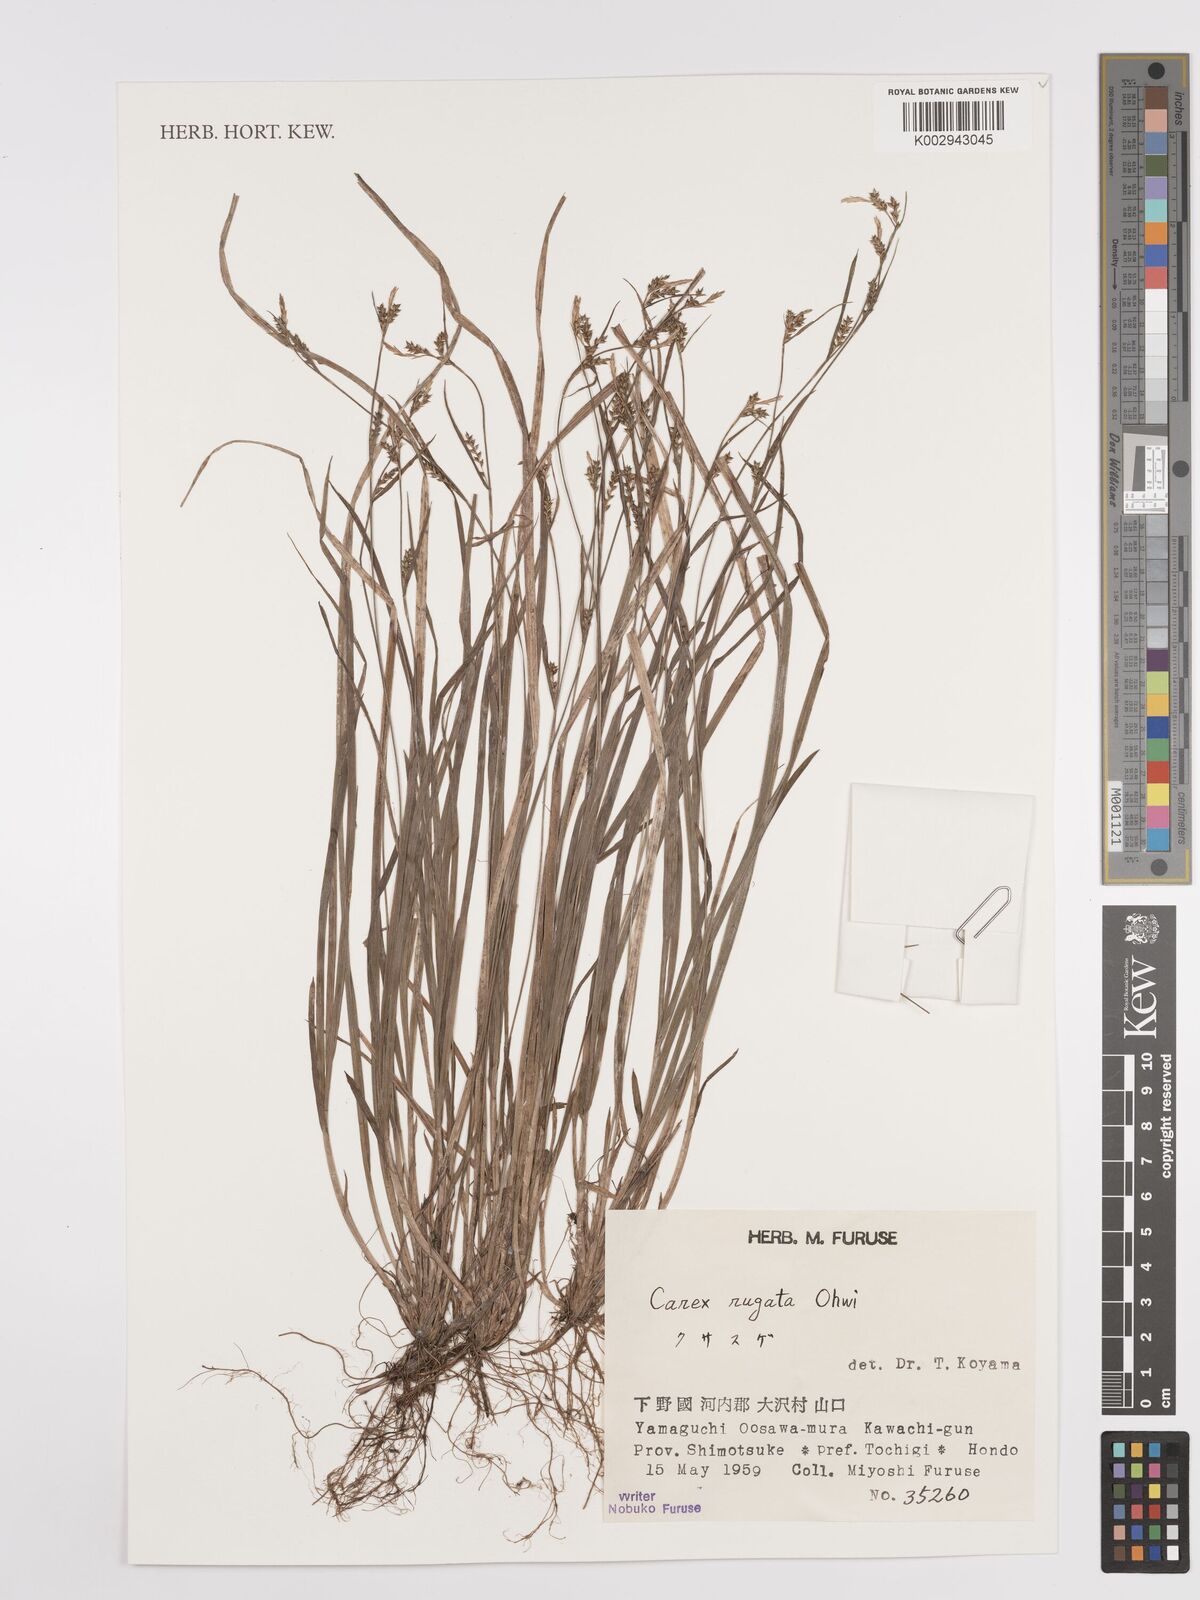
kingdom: Plantae
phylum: Tracheophyta
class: Liliopsida
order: Poales
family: Cyperaceae
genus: Carex
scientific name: Carex rugata
